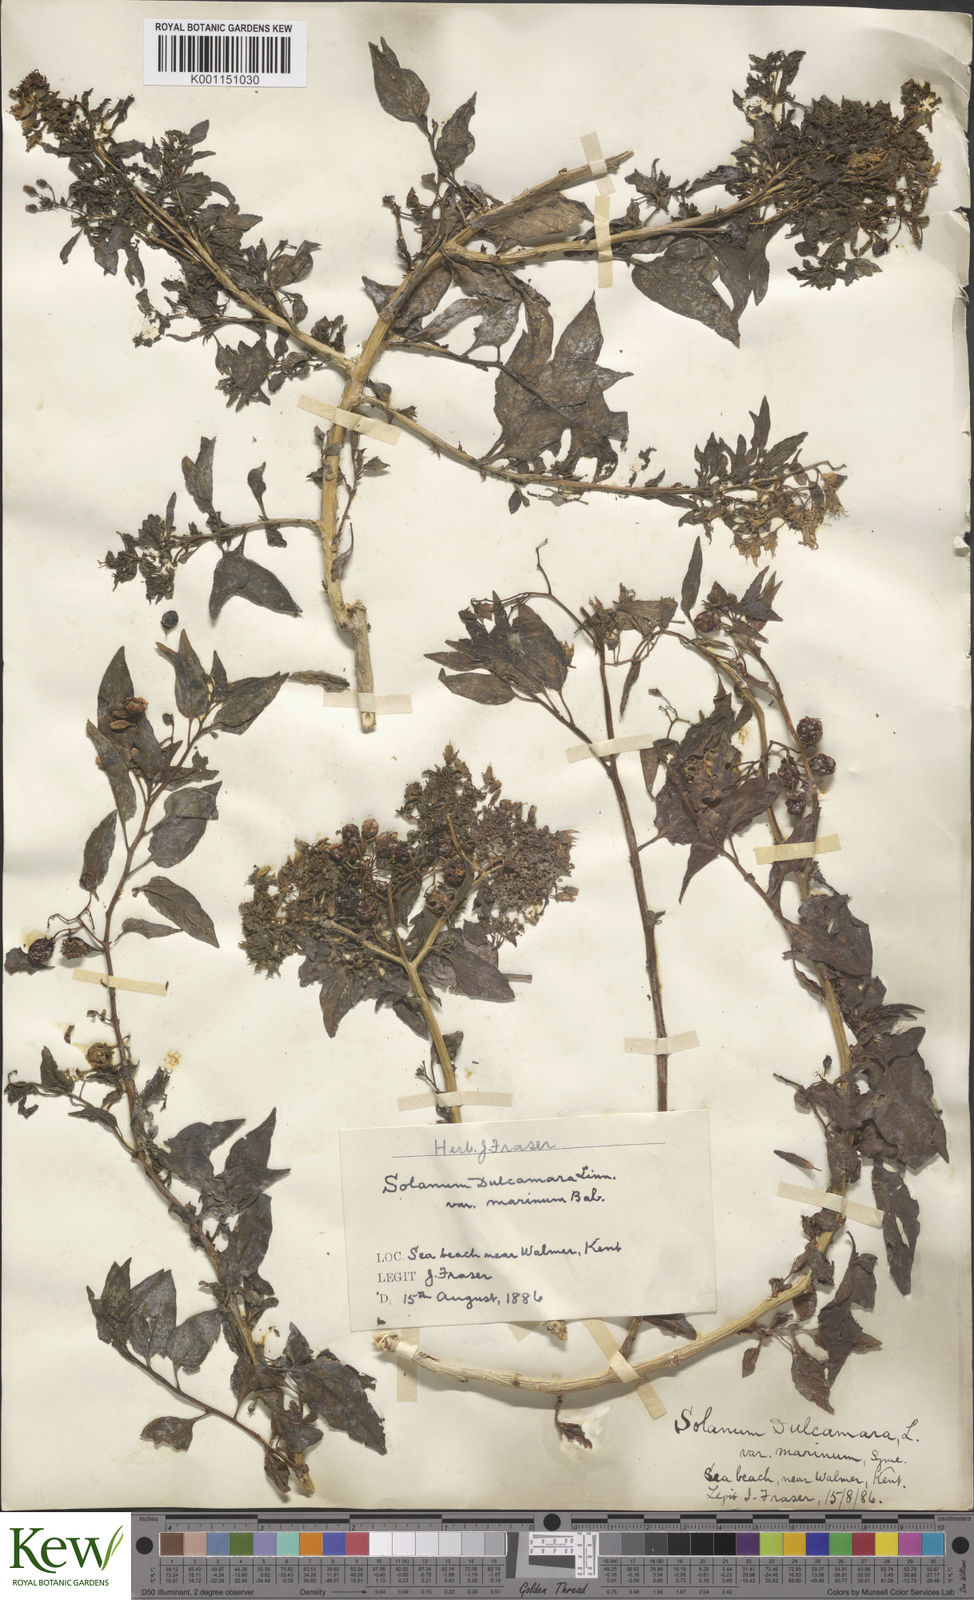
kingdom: Plantae
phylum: Tracheophyta
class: Magnoliopsida
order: Solanales
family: Solanaceae
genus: Solanum
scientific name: Solanum dulcamara
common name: Climbing nightshade
